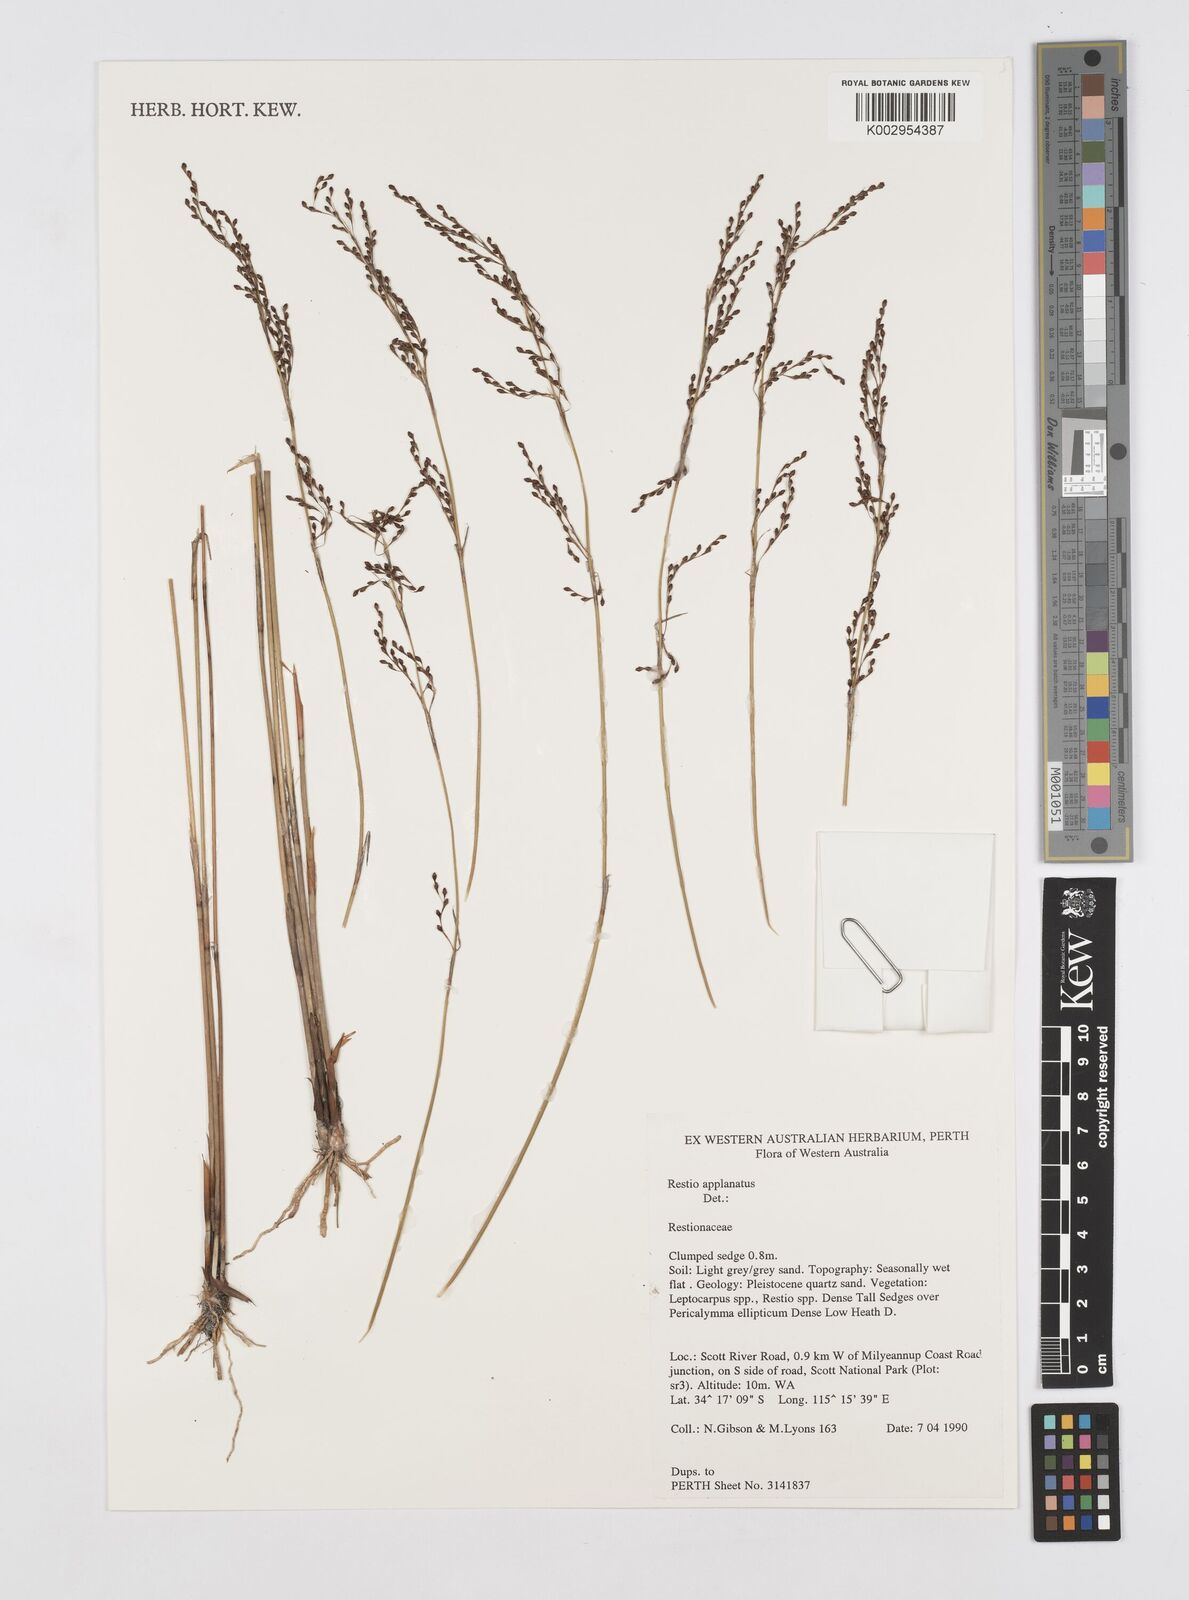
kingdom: Plantae
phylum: Tracheophyta
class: Liliopsida
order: Poales
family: Restionaceae
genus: Platychorda
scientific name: Platychorda applanata
